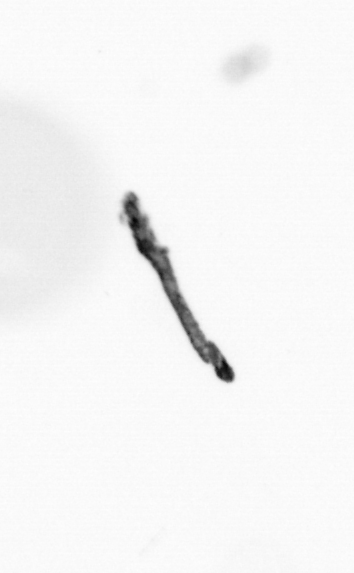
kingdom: Chromista
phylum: Ochrophyta
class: Bacillariophyceae
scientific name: Bacillariophyceae
